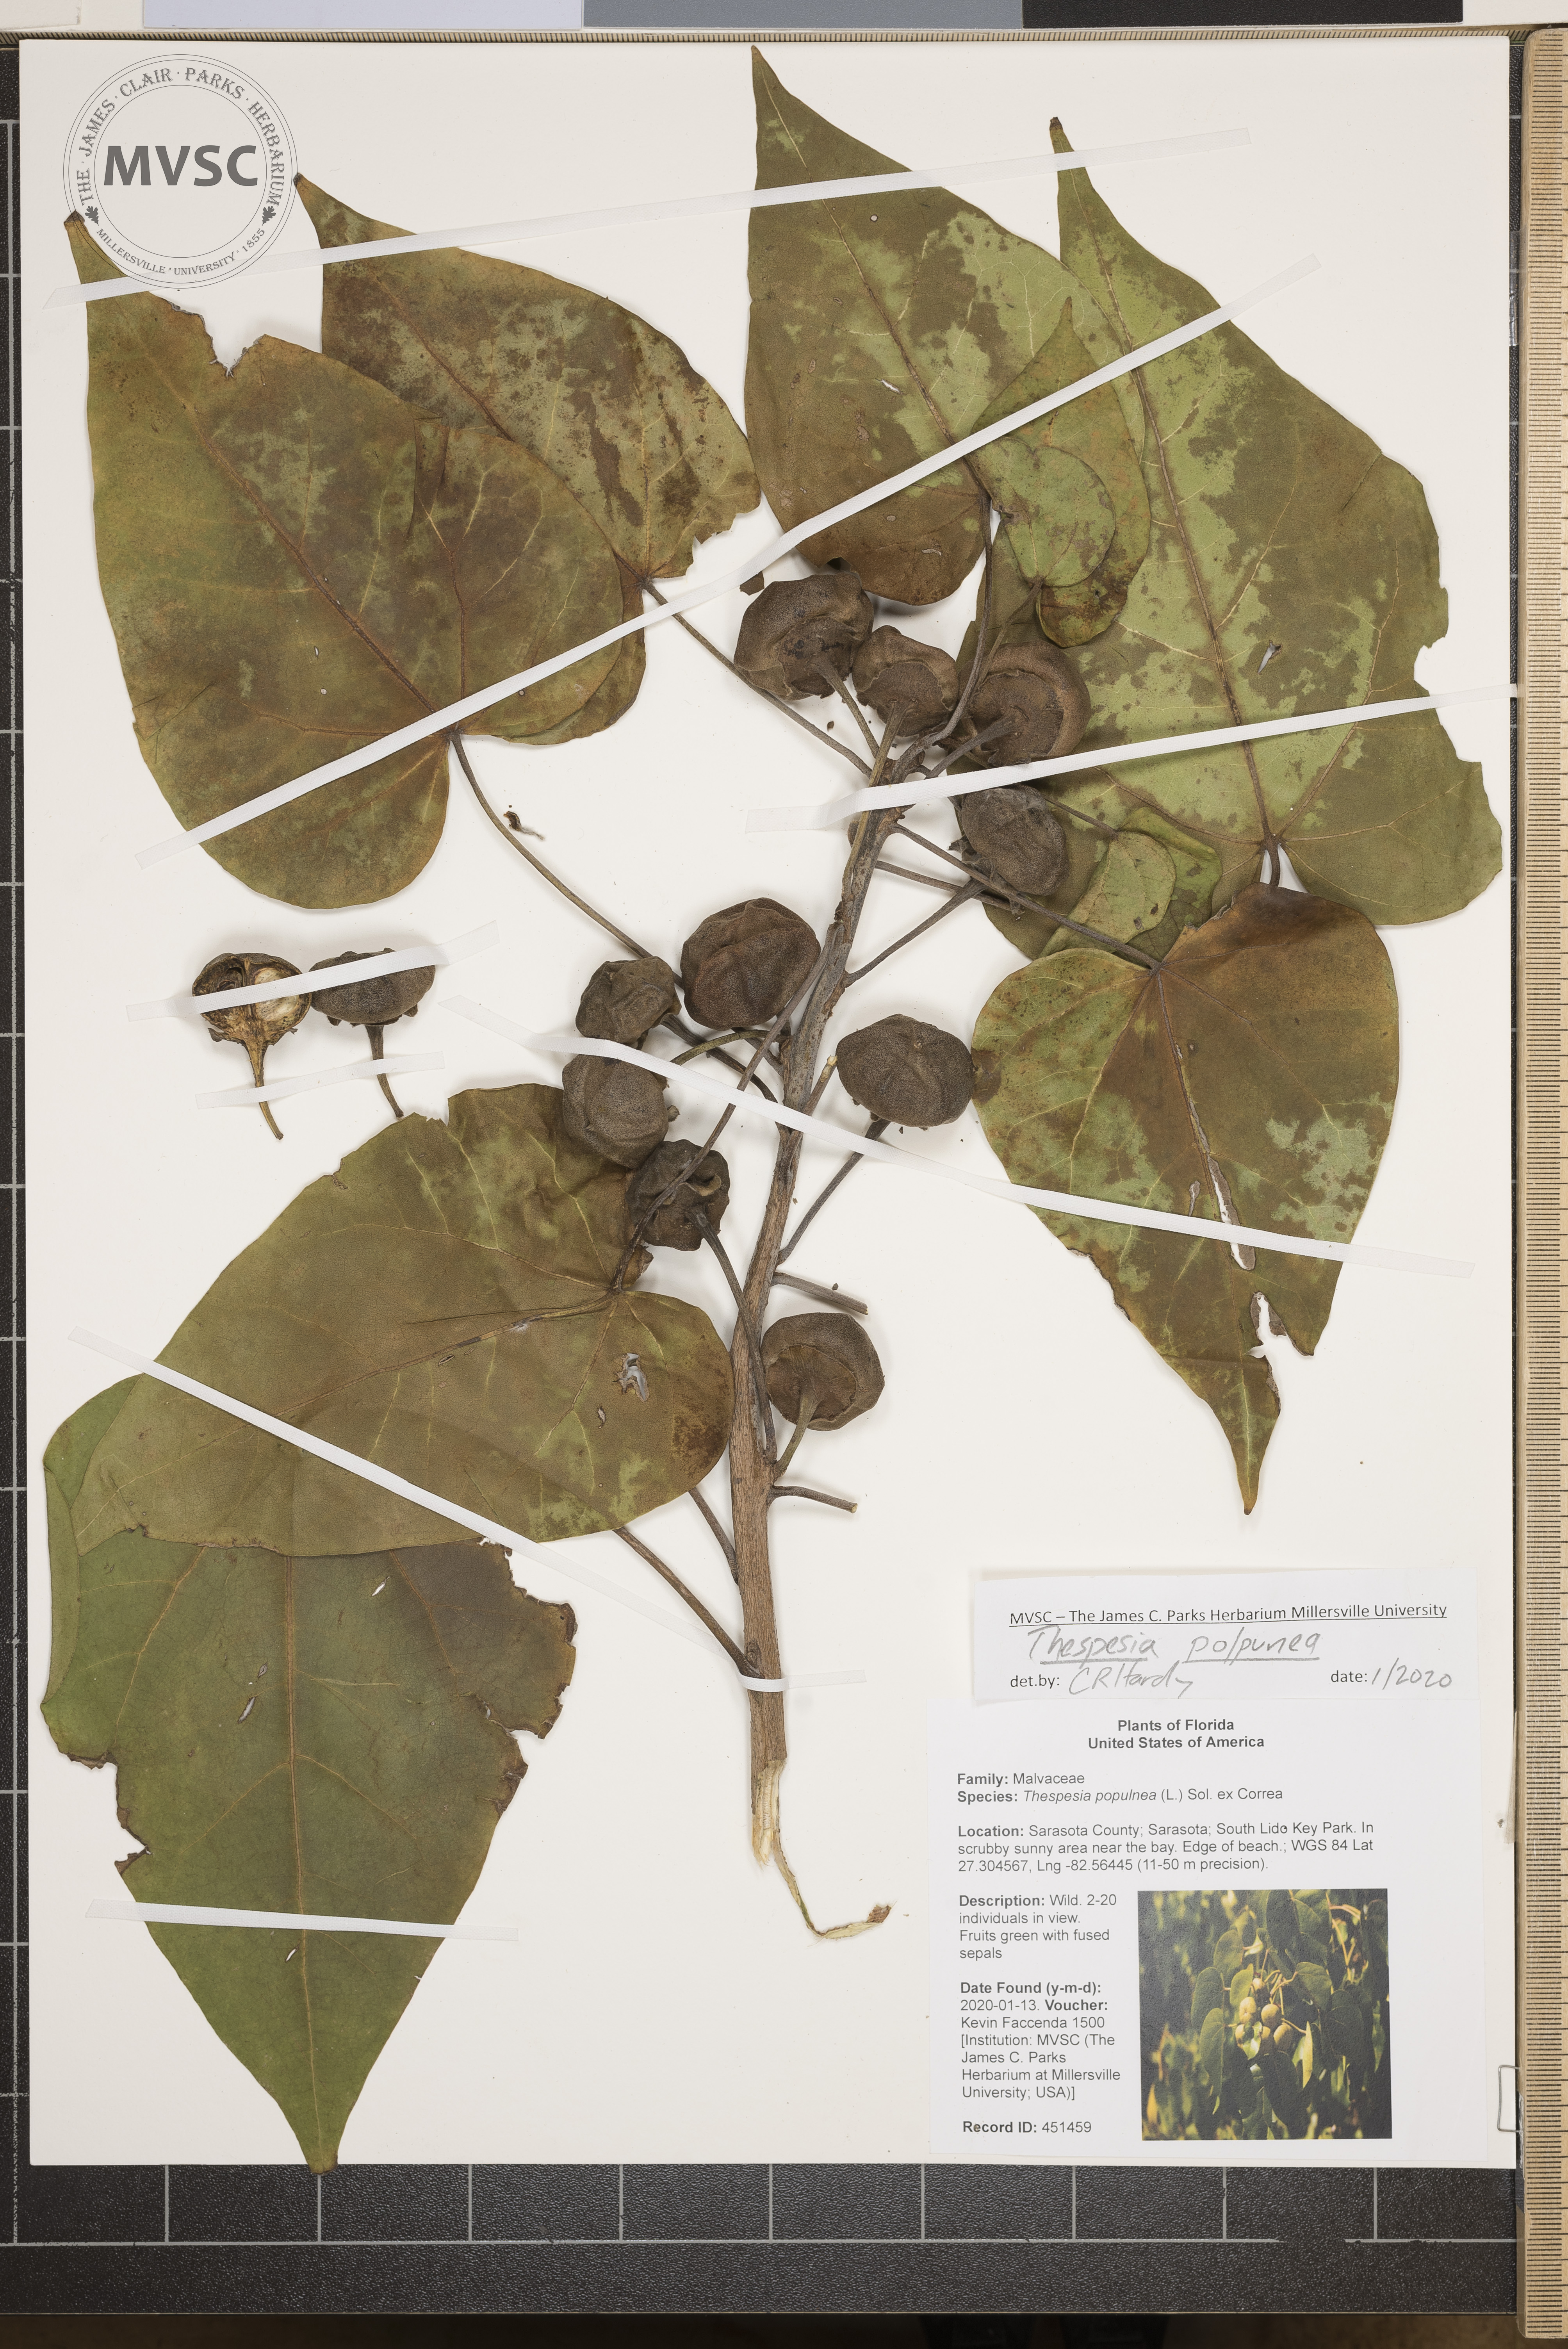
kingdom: Plantae
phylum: Tracheophyta
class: Magnoliopsida
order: Malvales
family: Malvaceae
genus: Thespesia
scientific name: Thespesia populnea
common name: Seaside mahoe
